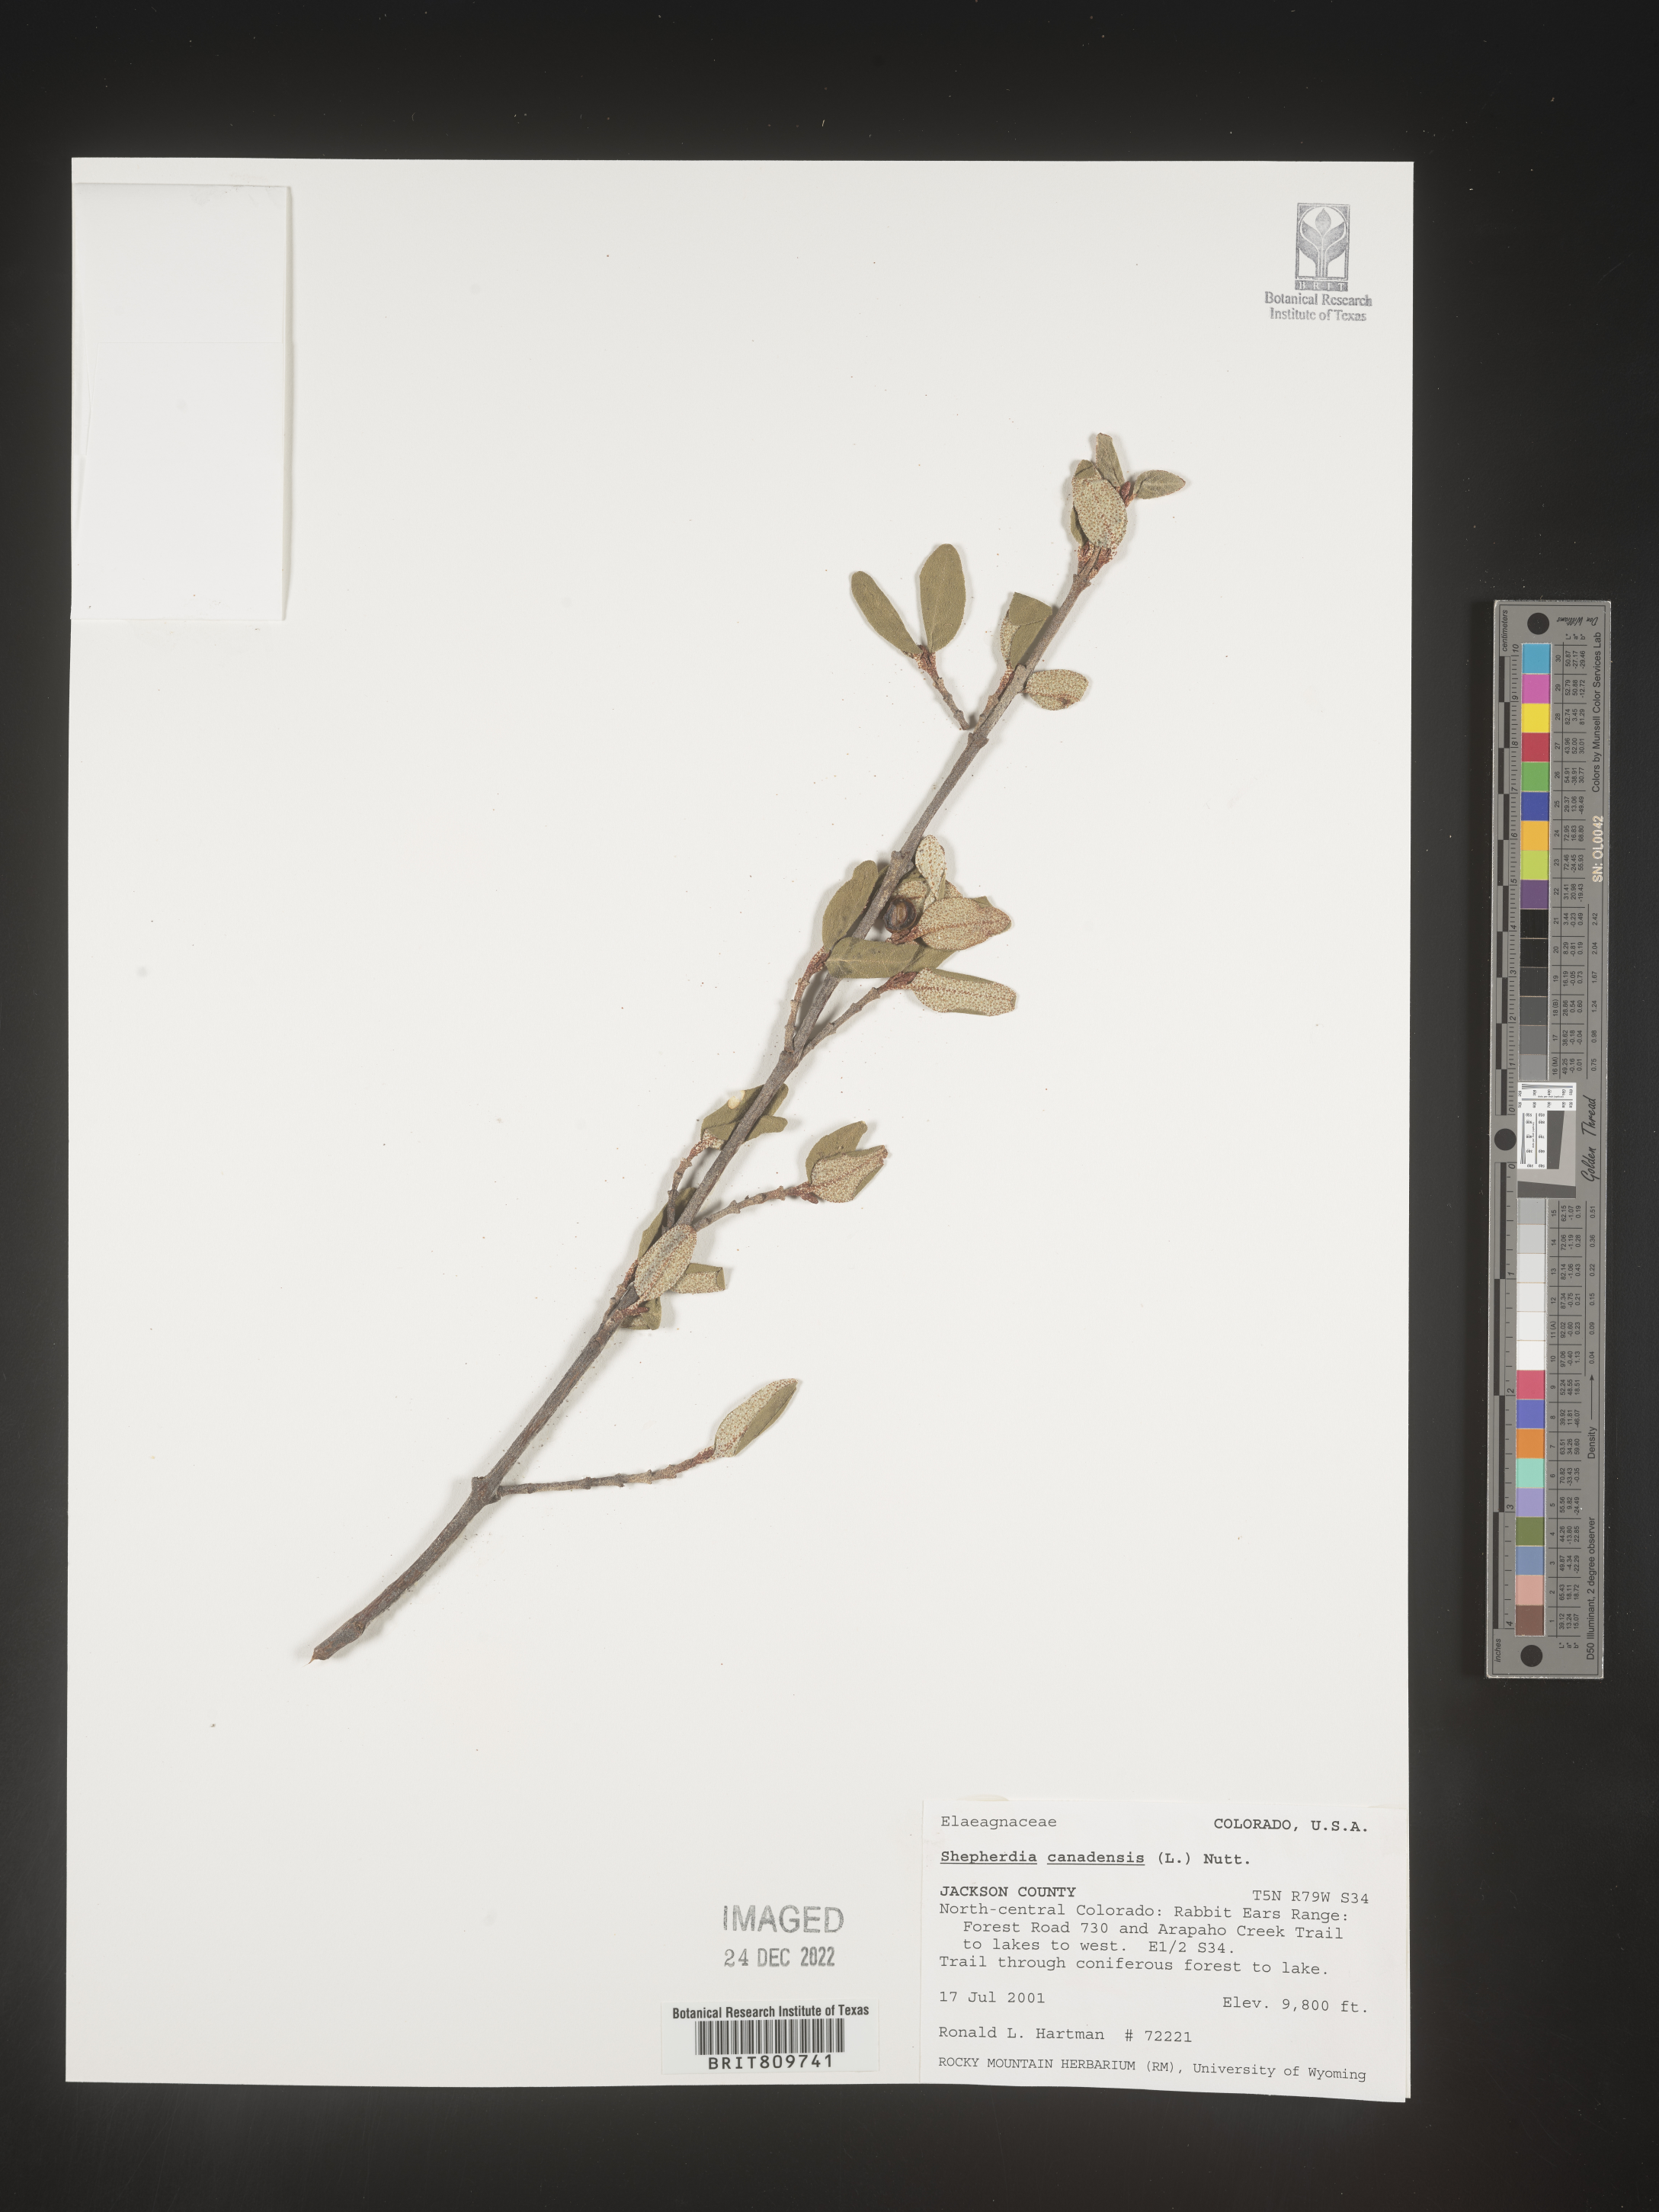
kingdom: Plantae
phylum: Tracheophyta
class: Magnoliopsida
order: Rosales
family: Elaeagnaceae
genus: Shepherdia
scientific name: Shepherdia canadensis
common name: Soapberry
